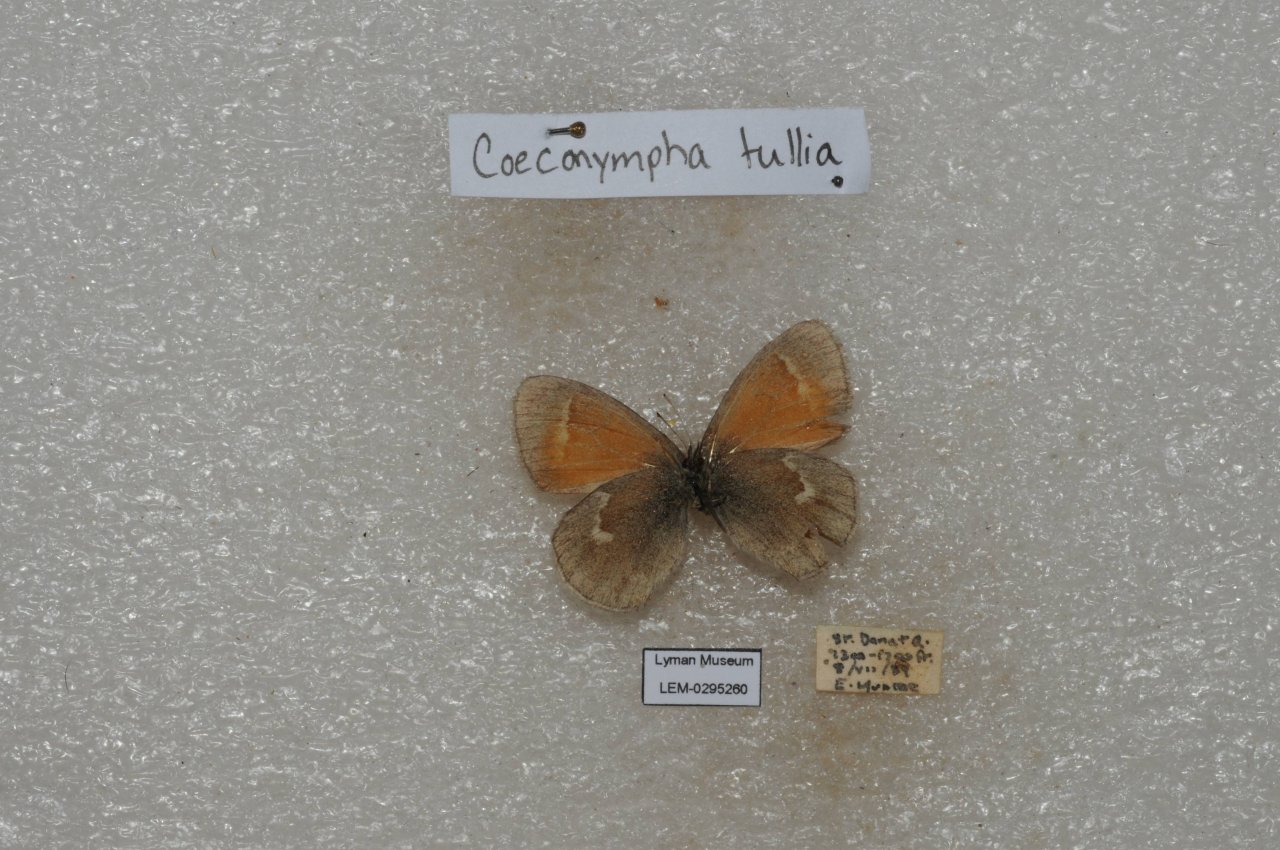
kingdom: Animalia
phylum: Arthropoda
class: Insecta
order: Lepidoptera
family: Nymphalidae
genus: Coenonympha
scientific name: Coenonympha tullia
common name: Large Heath
